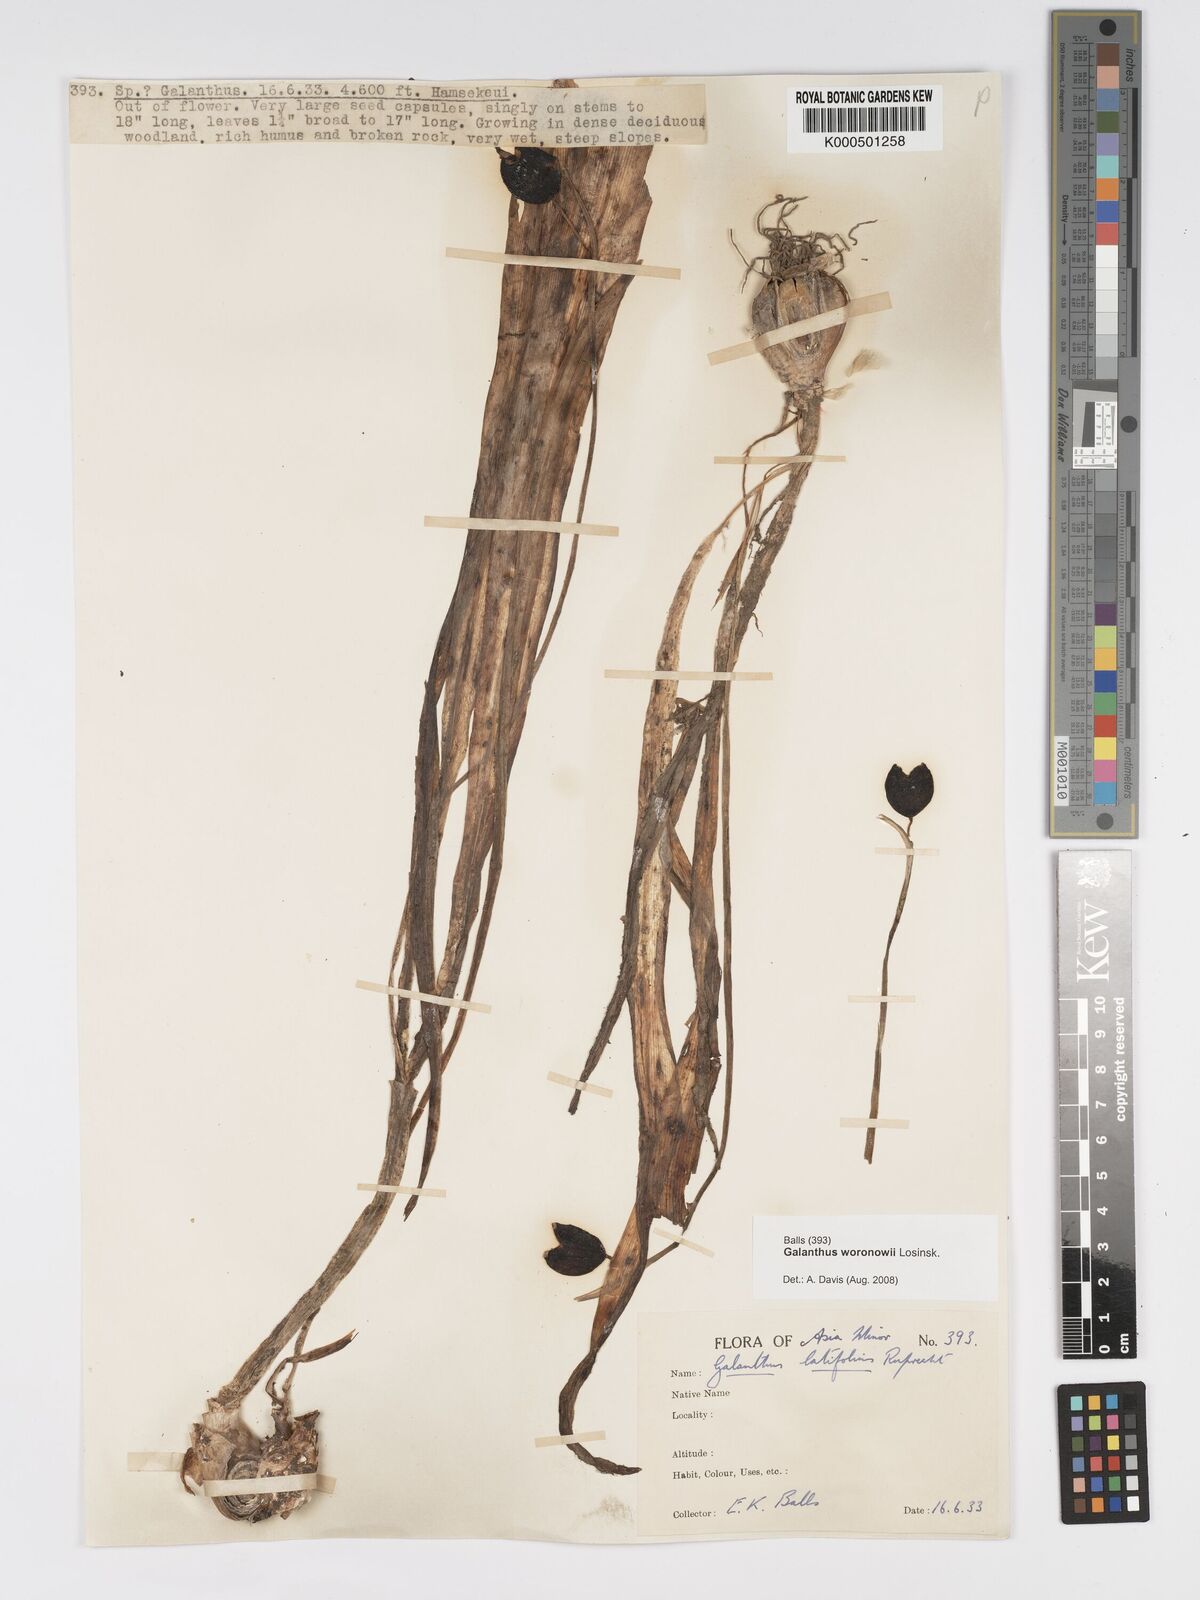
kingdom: Plantae
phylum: Tracheophyta
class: Liliopsida
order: Asparagales
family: Amaryllidaceae
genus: Galanthus
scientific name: Galanthus woronowii
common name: Green snowdrop
